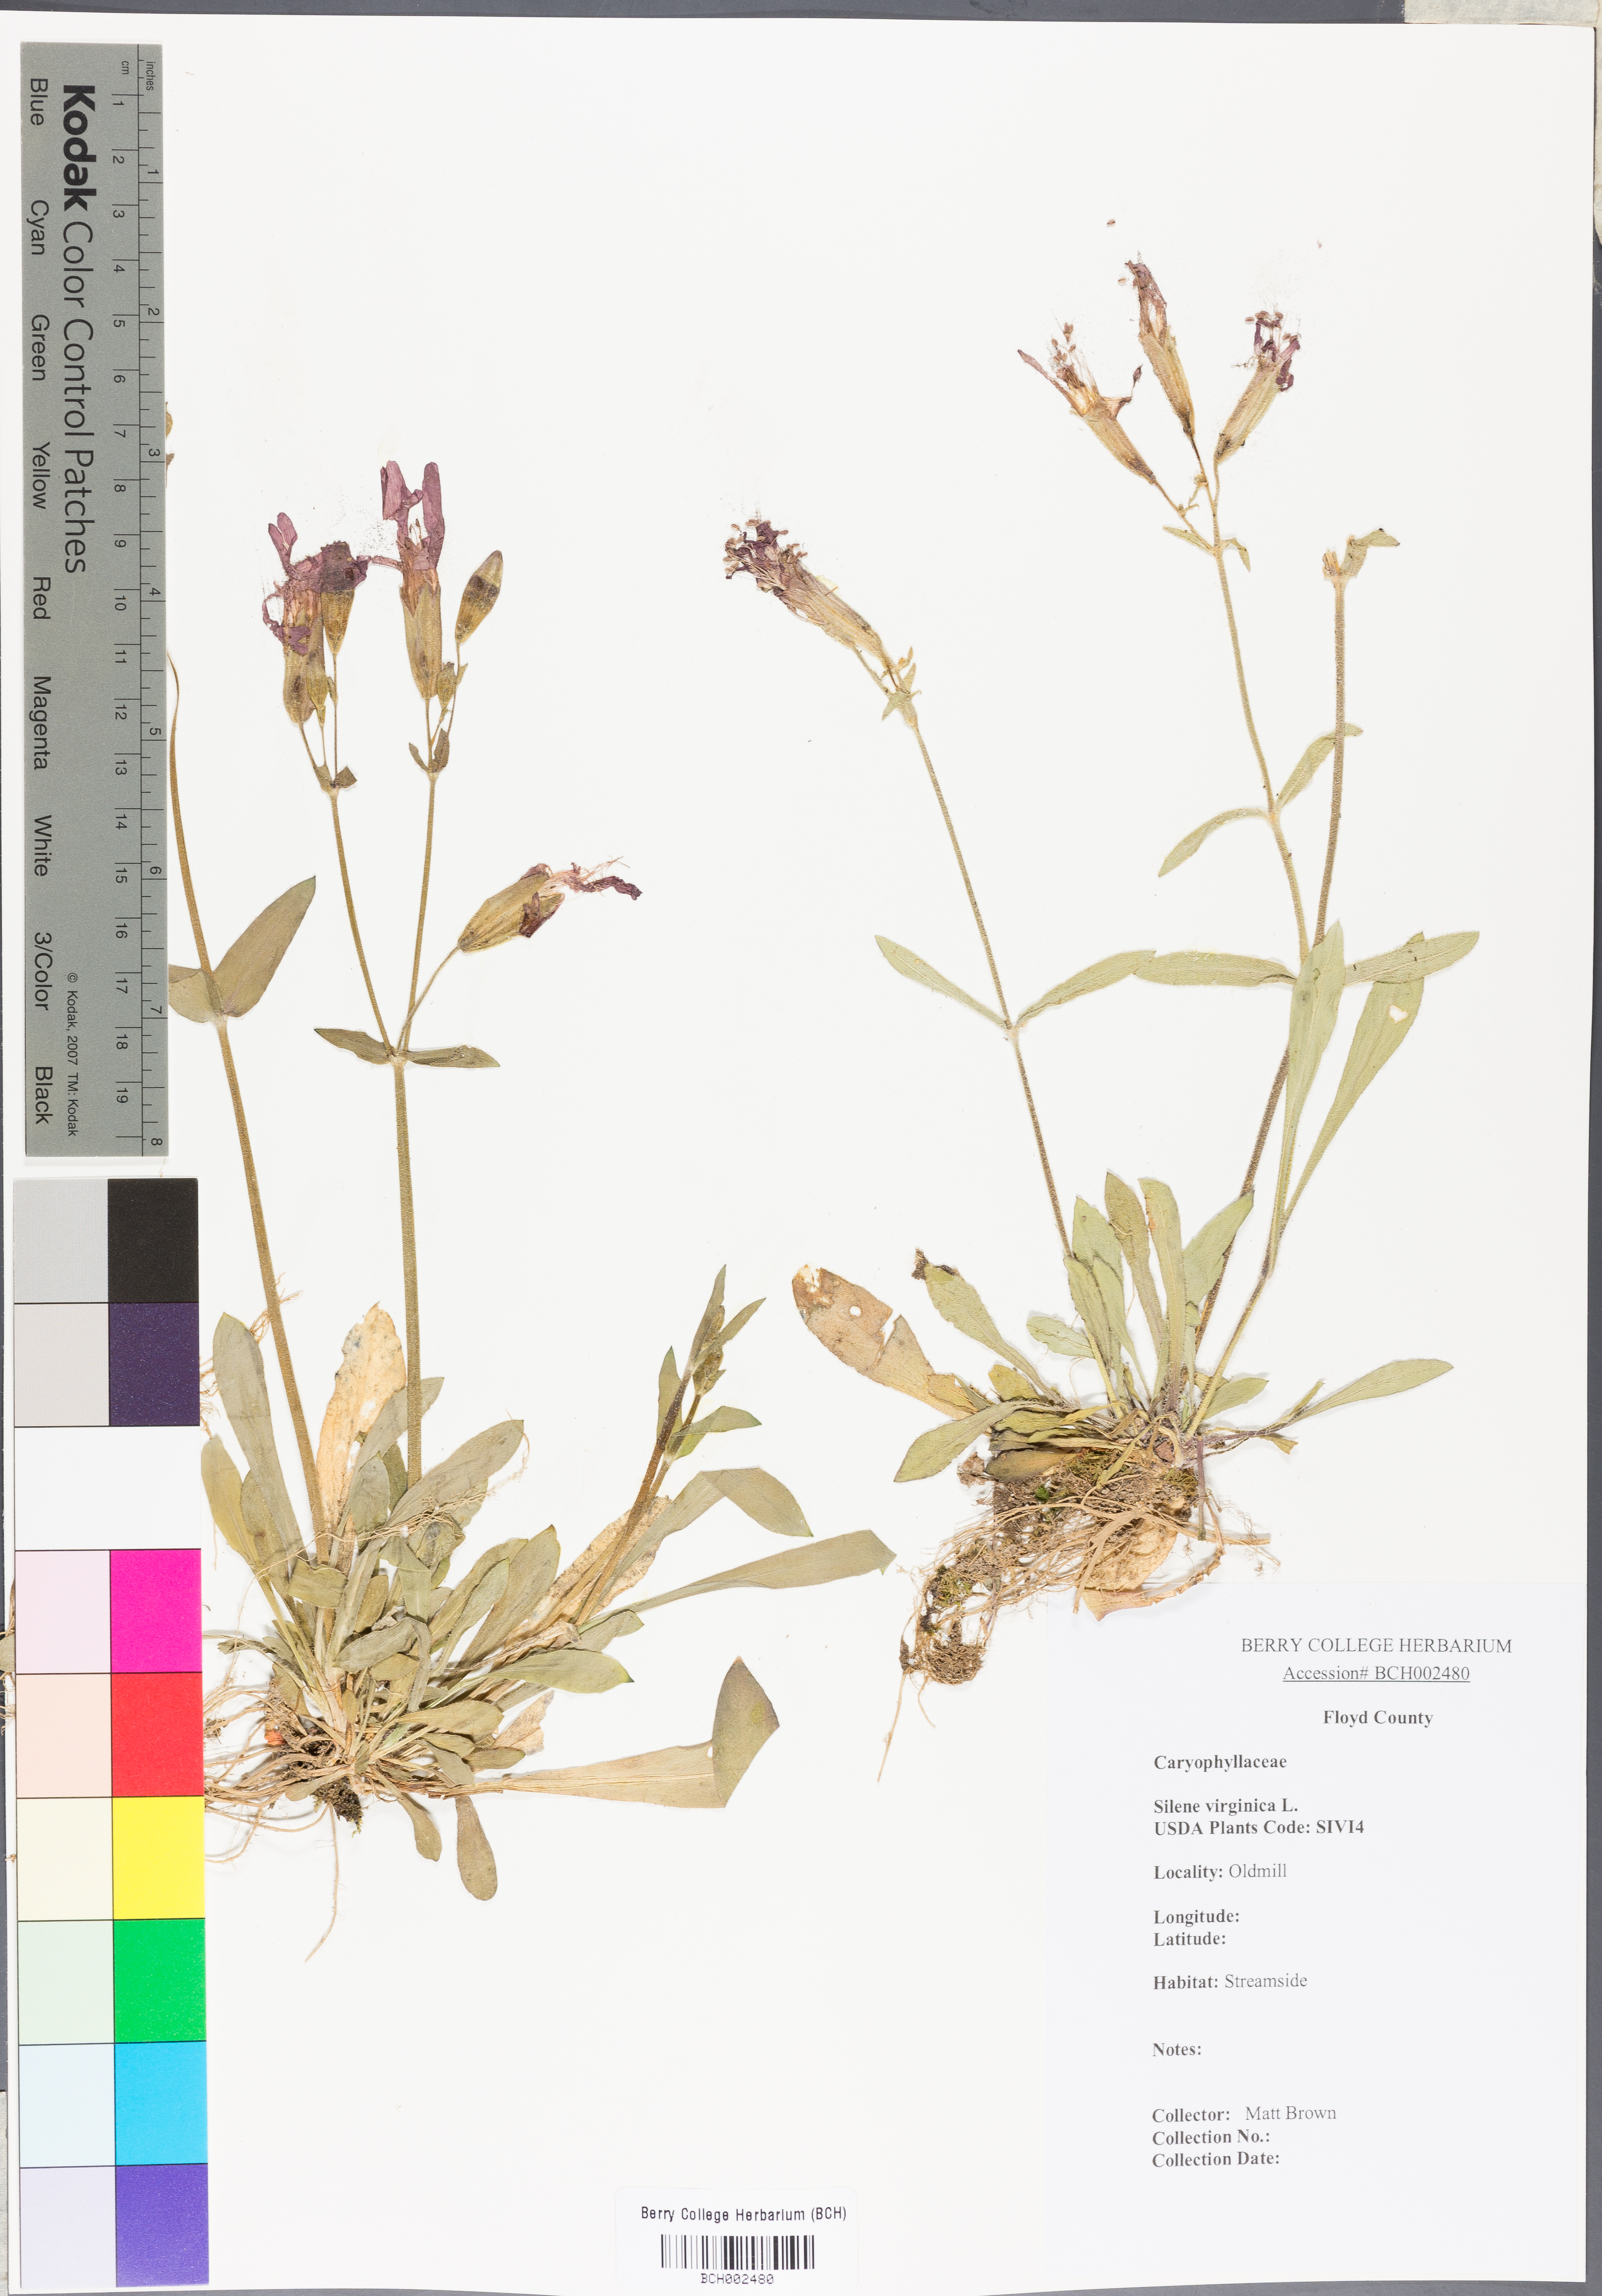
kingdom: Plantae
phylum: Tracheophyta
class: Magnoliopsida
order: Caryophyllales
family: Caryophyllaceae
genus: Silene
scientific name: Silene virginica
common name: Fire-pink
